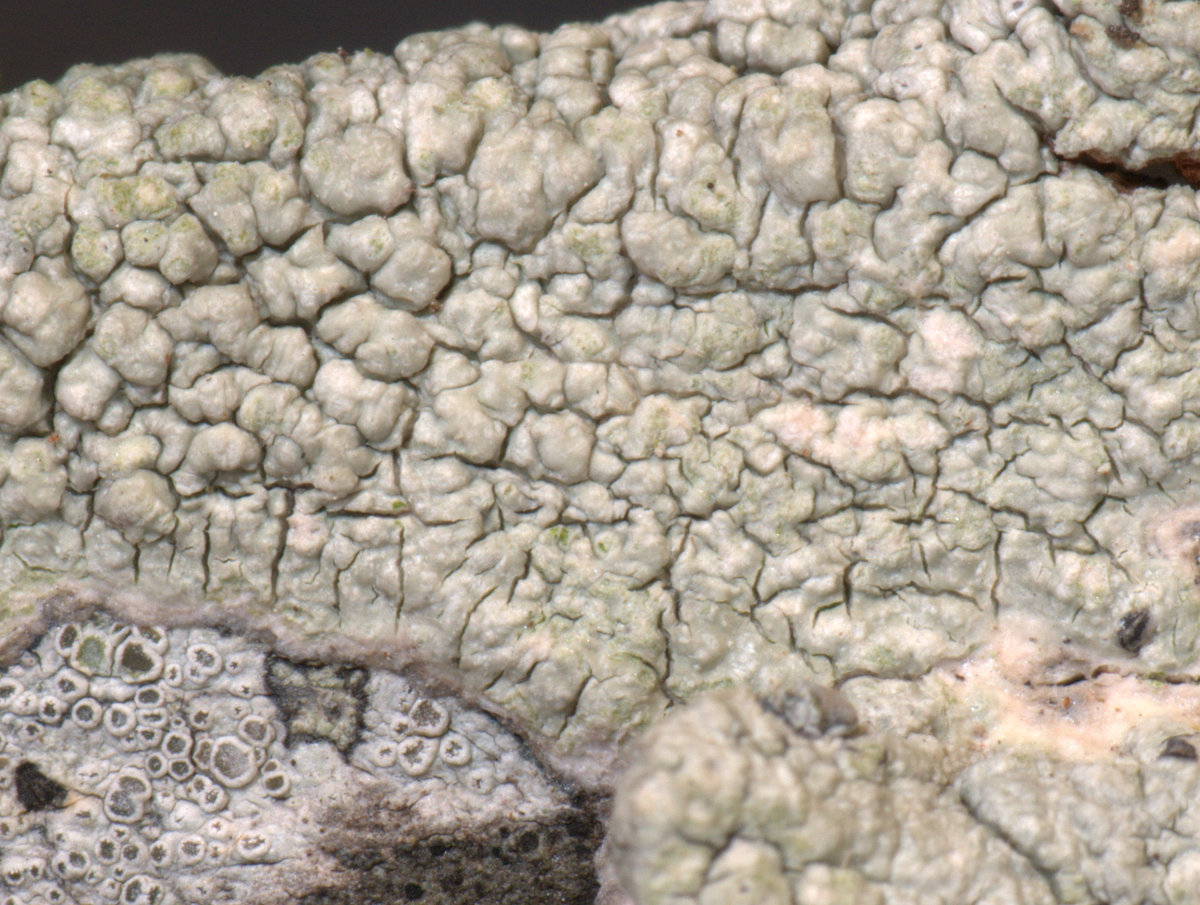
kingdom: Fungi
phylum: Ascomycota
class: Lecanoromycetes
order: Pertusariales
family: Pertusariaceae
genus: Pertusaria
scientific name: Pertusaria pertusa
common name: almindelig prikvortelav
